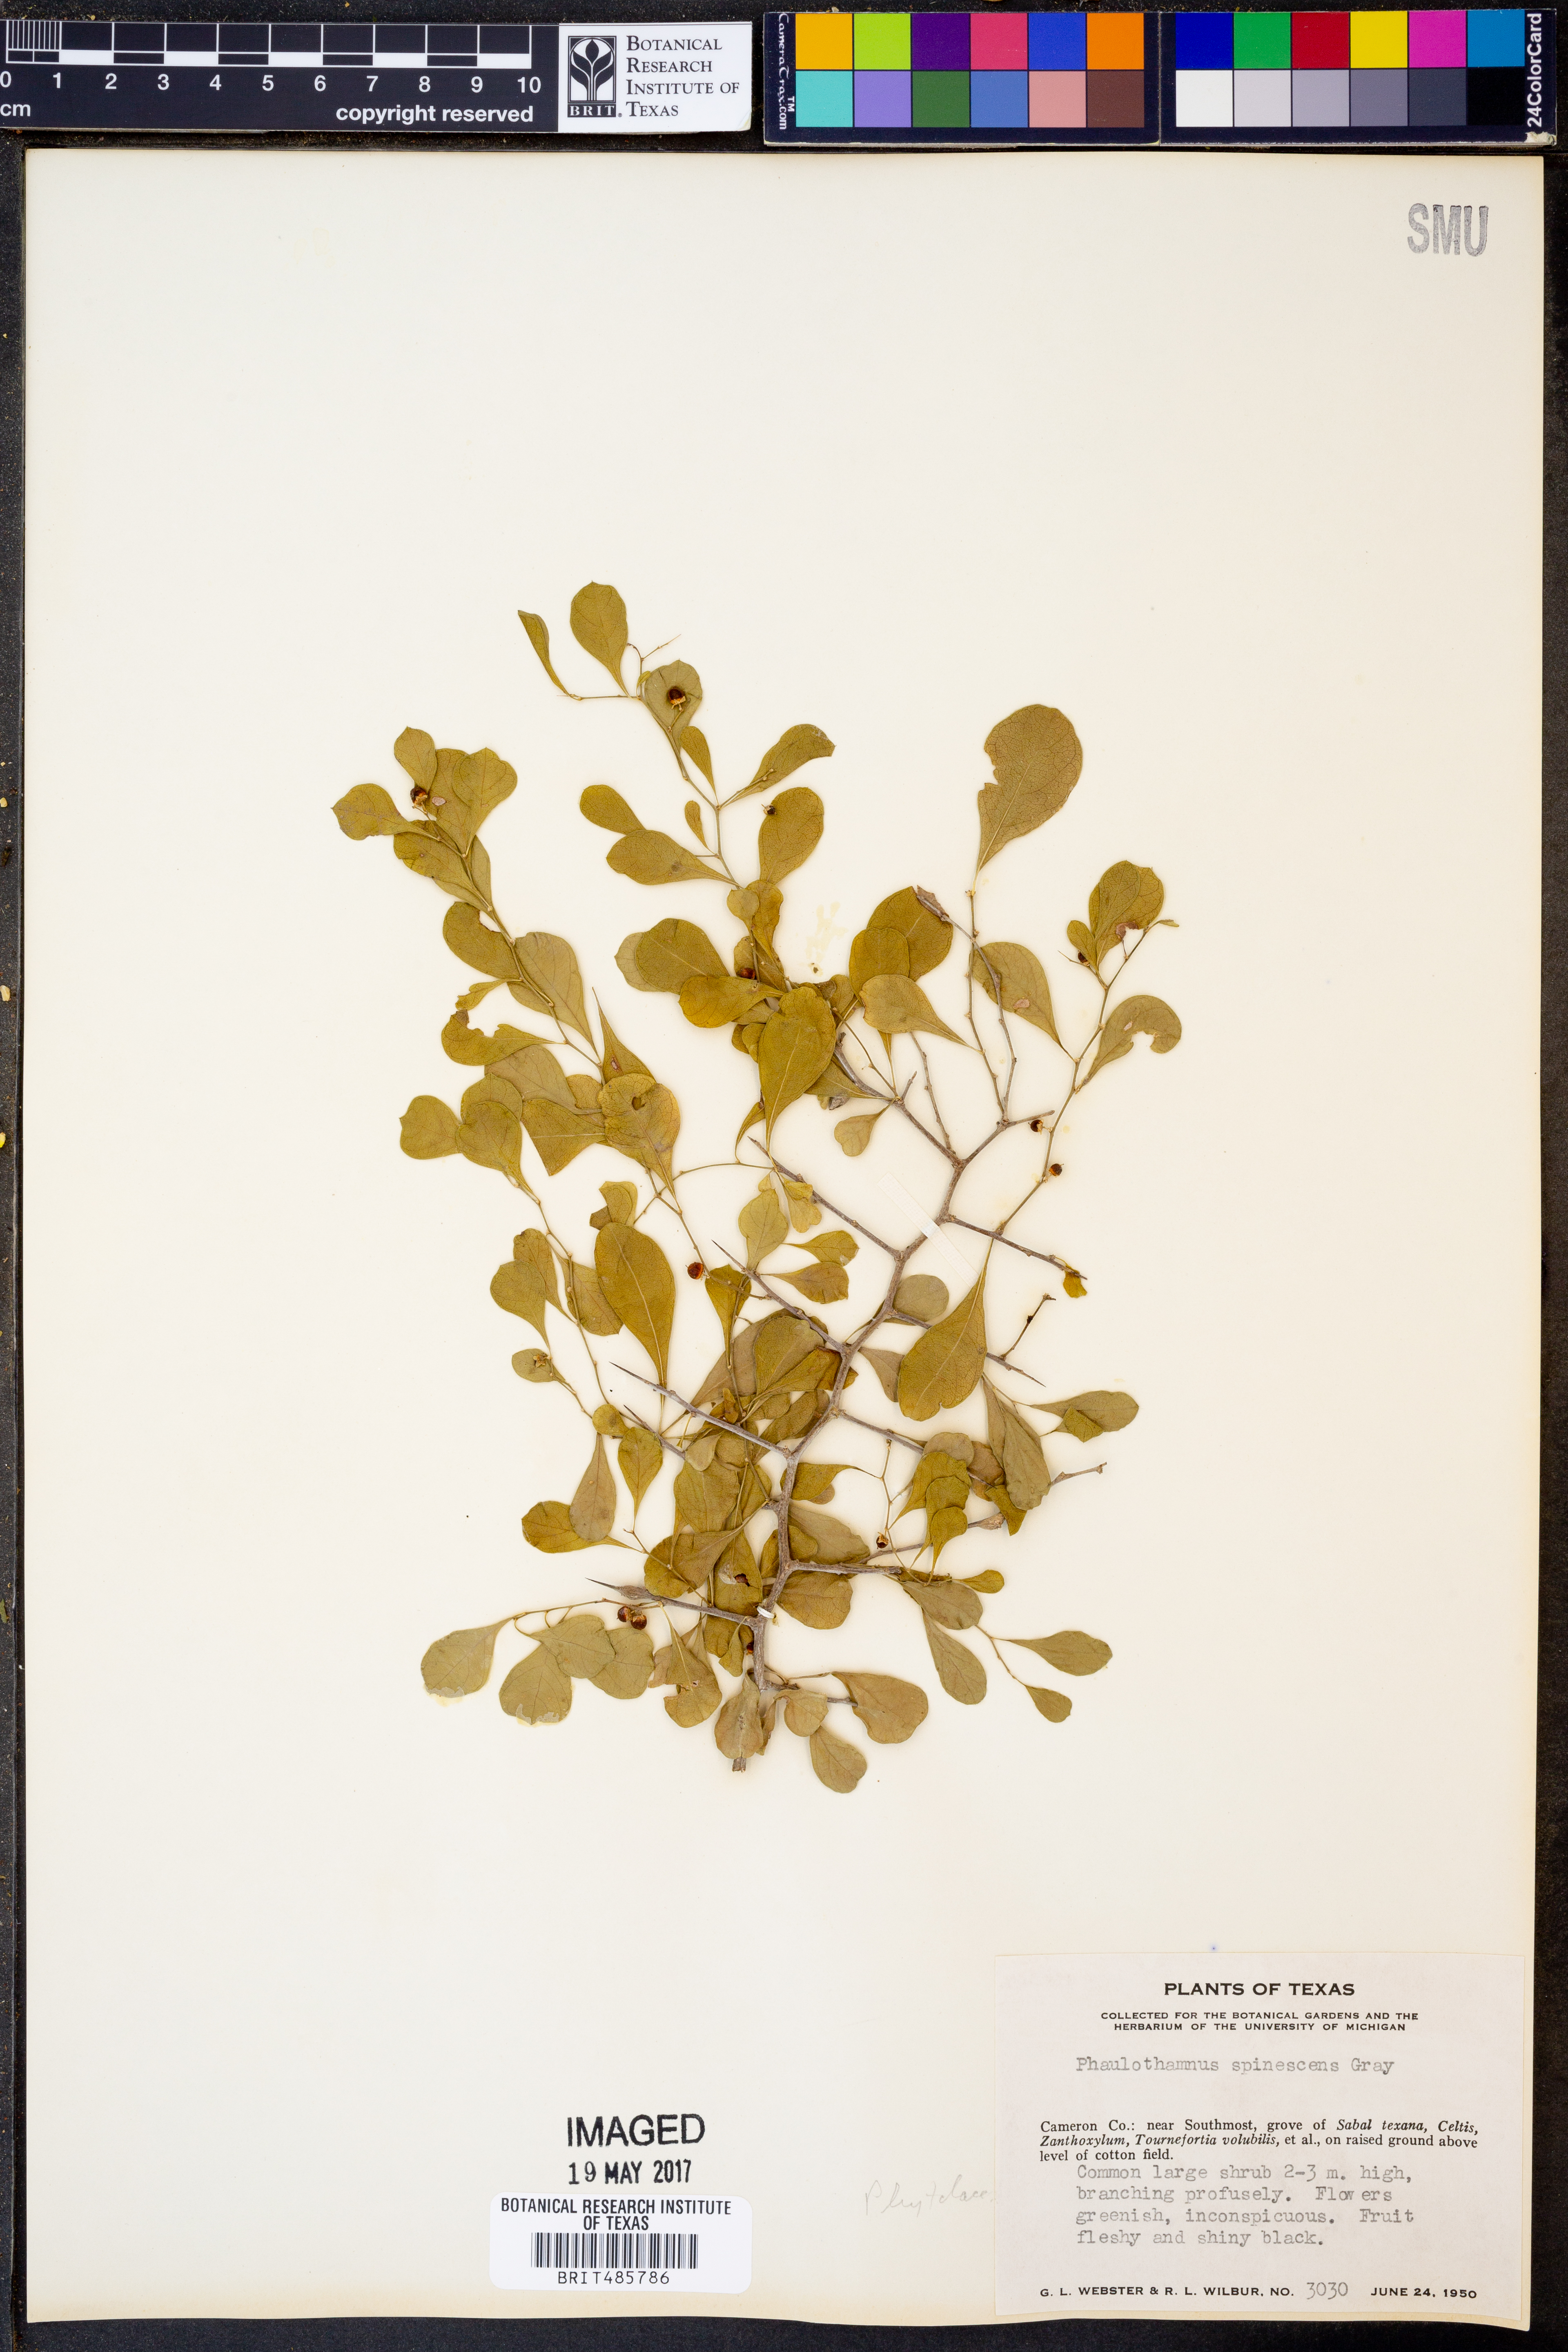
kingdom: Plantae
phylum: Tracheophyta
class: Magnoliopsida
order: Caryophyllales
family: Achatocarpaceae
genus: Phaulothamnus
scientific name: Phaulothamnus spinescens
